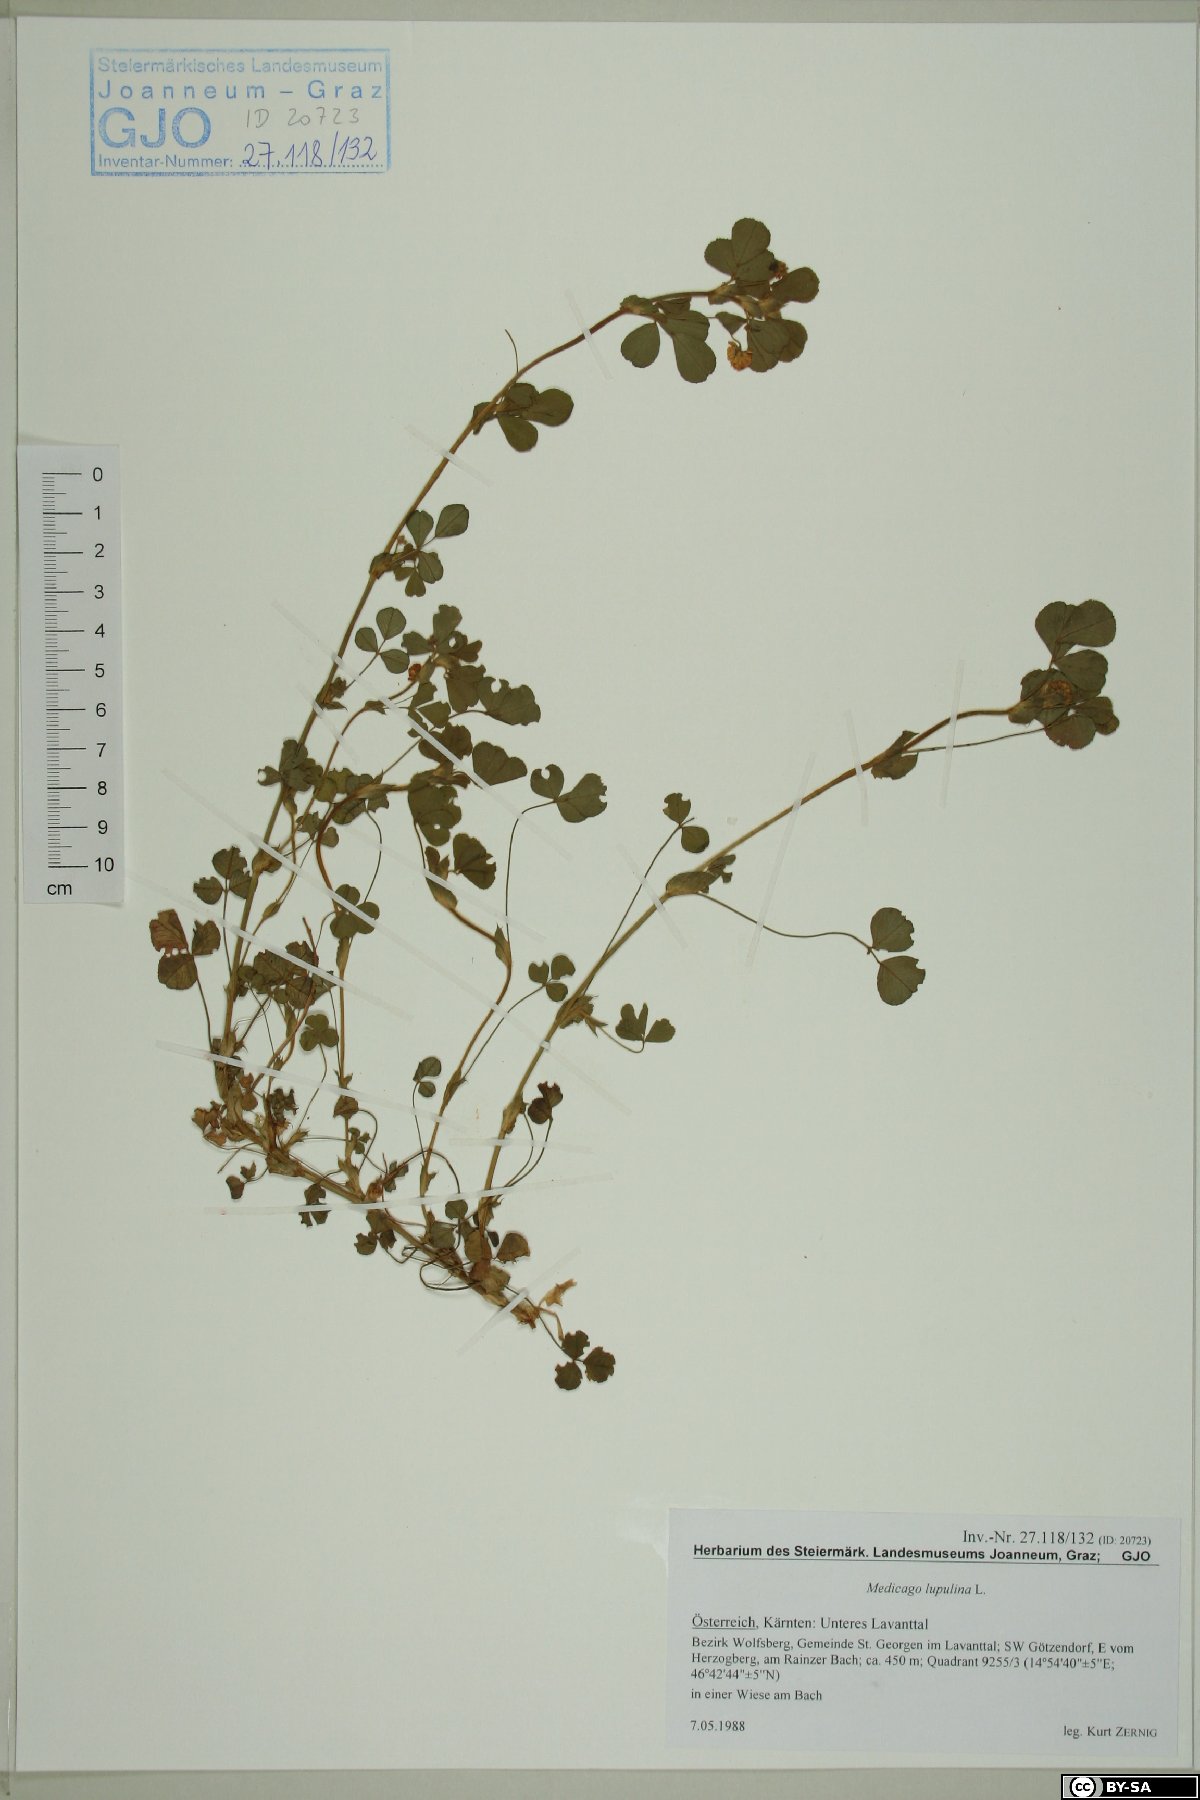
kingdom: Plantae
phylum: Tracheophyta
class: Magnoliopsida
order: Fabales
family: Fabaceae
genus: Medicago
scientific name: Medicago lupulina
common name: Black medick
